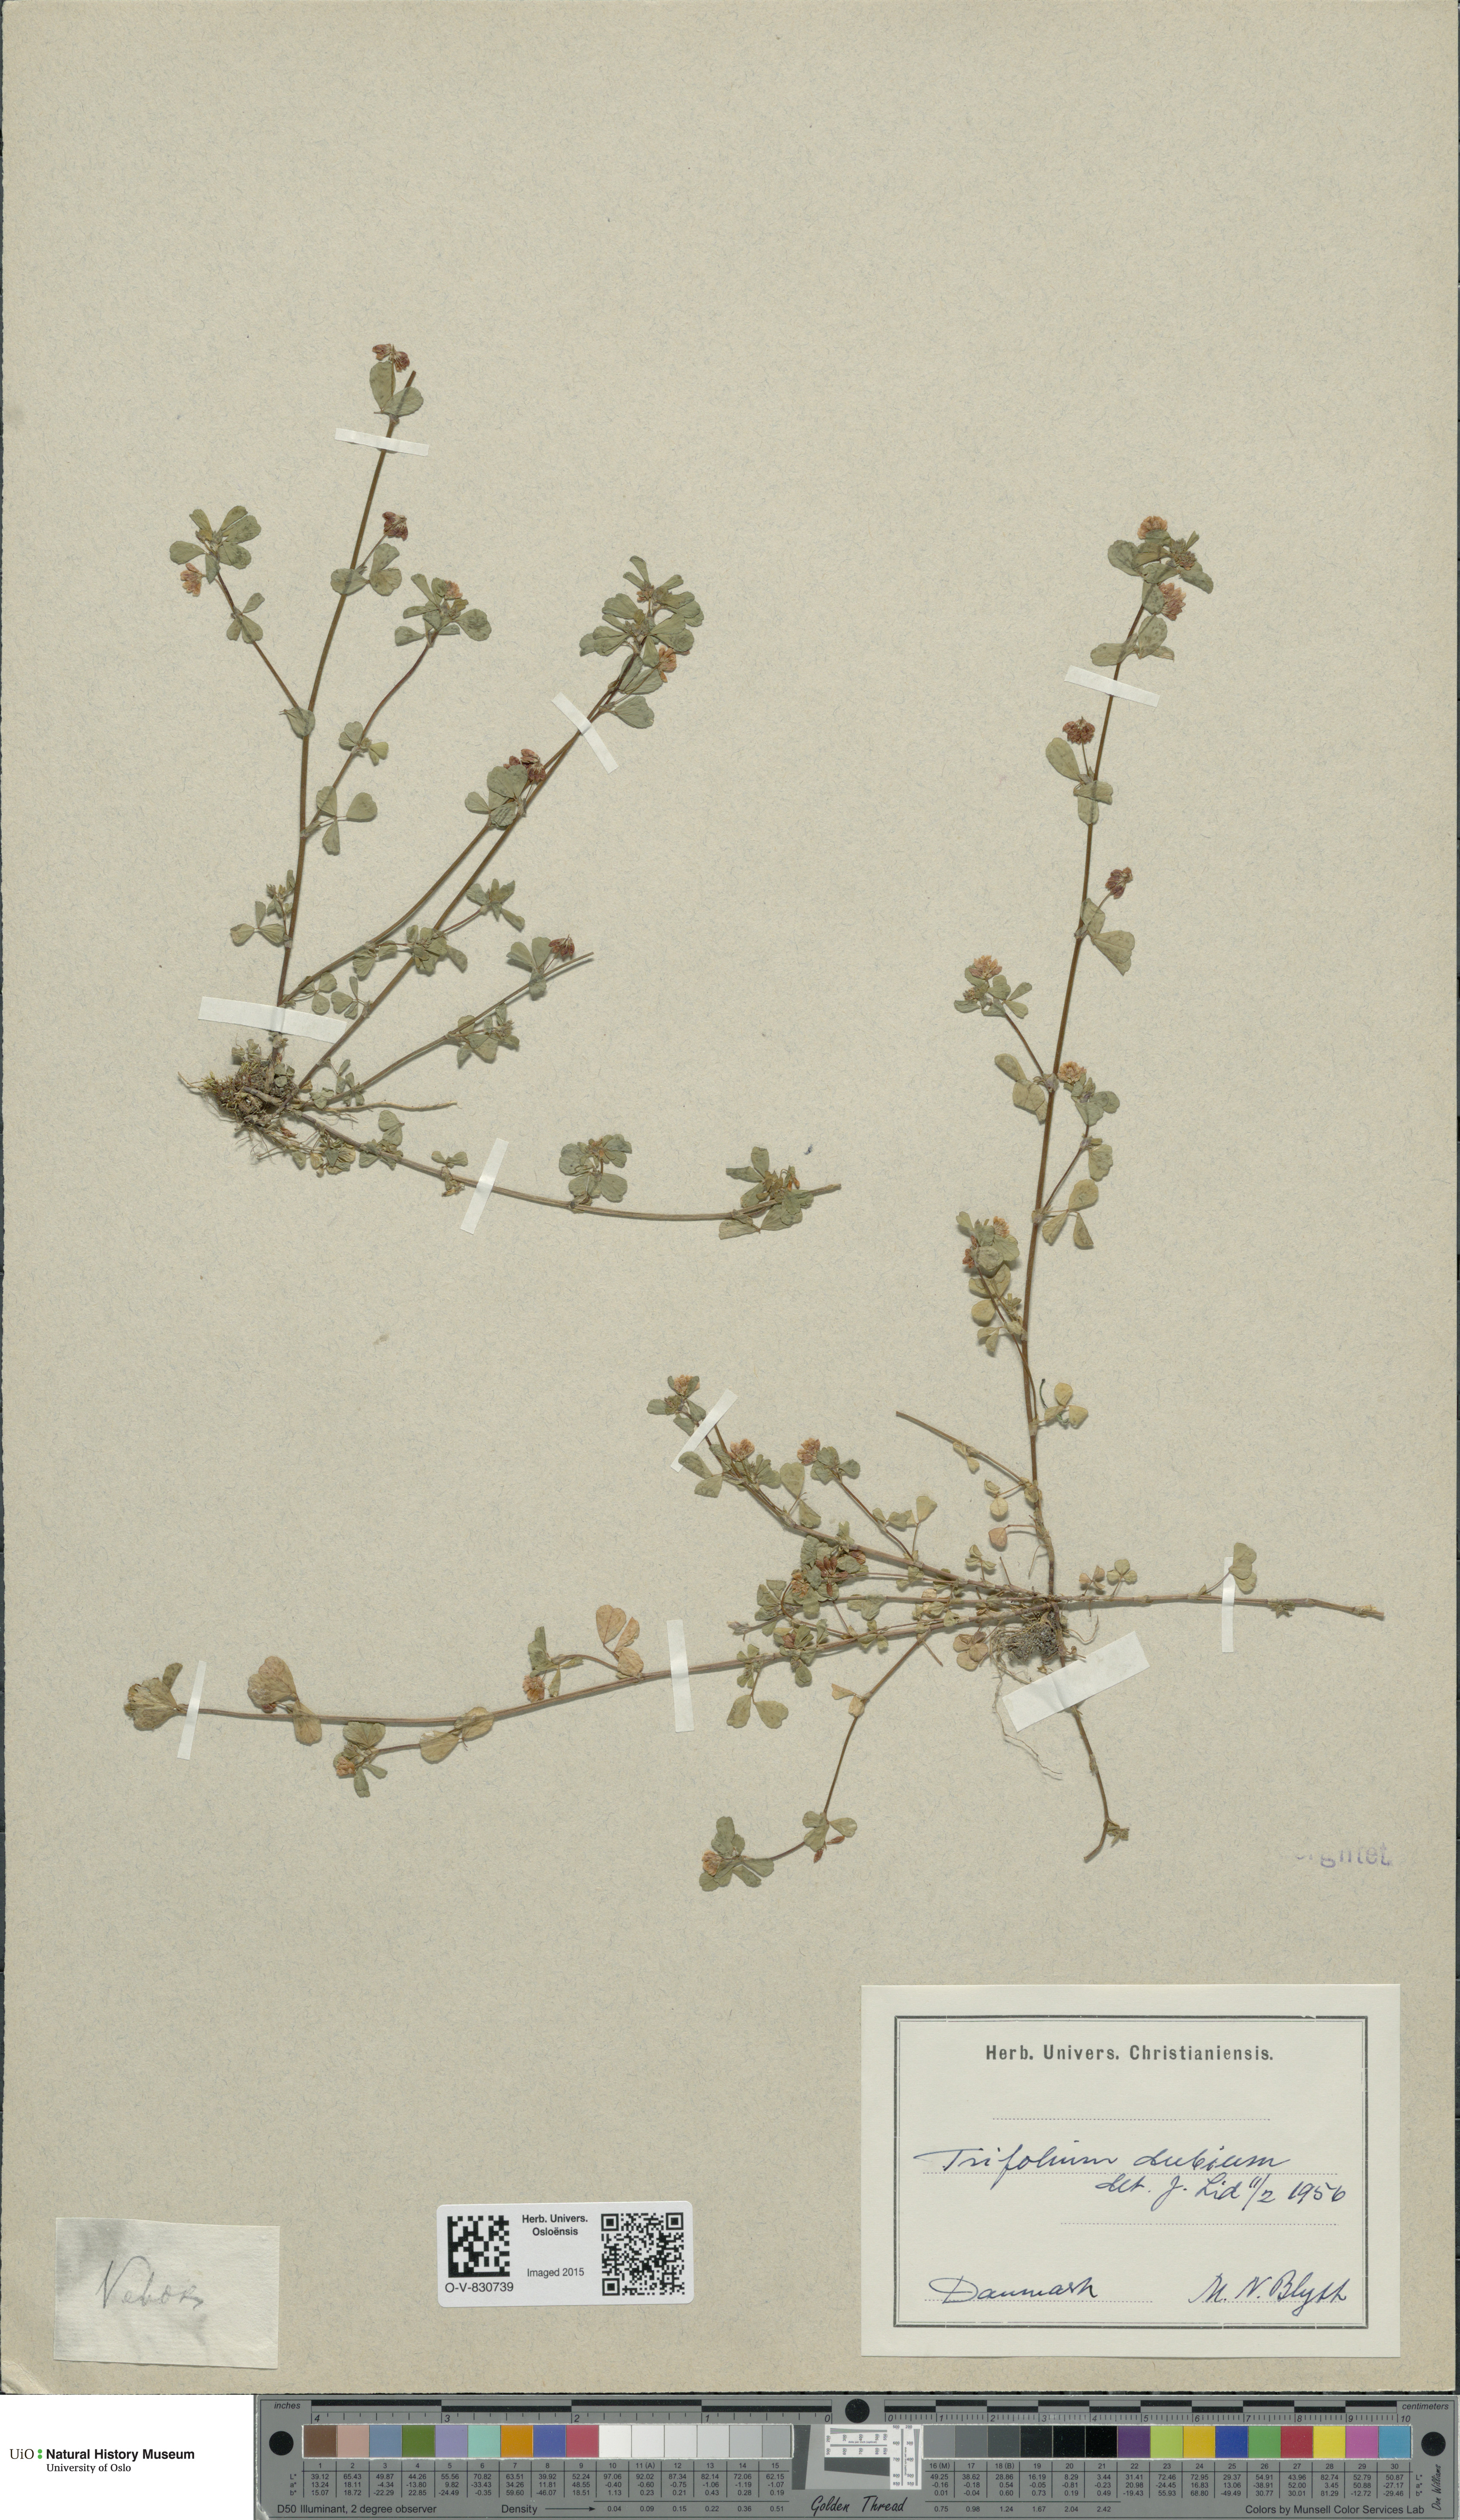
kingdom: Plantae
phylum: Tracheophyta
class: Magnoliopsida
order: Fabales
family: Fabaceae
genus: Trifolium
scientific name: Trifolium dubium
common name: Suckling clover
